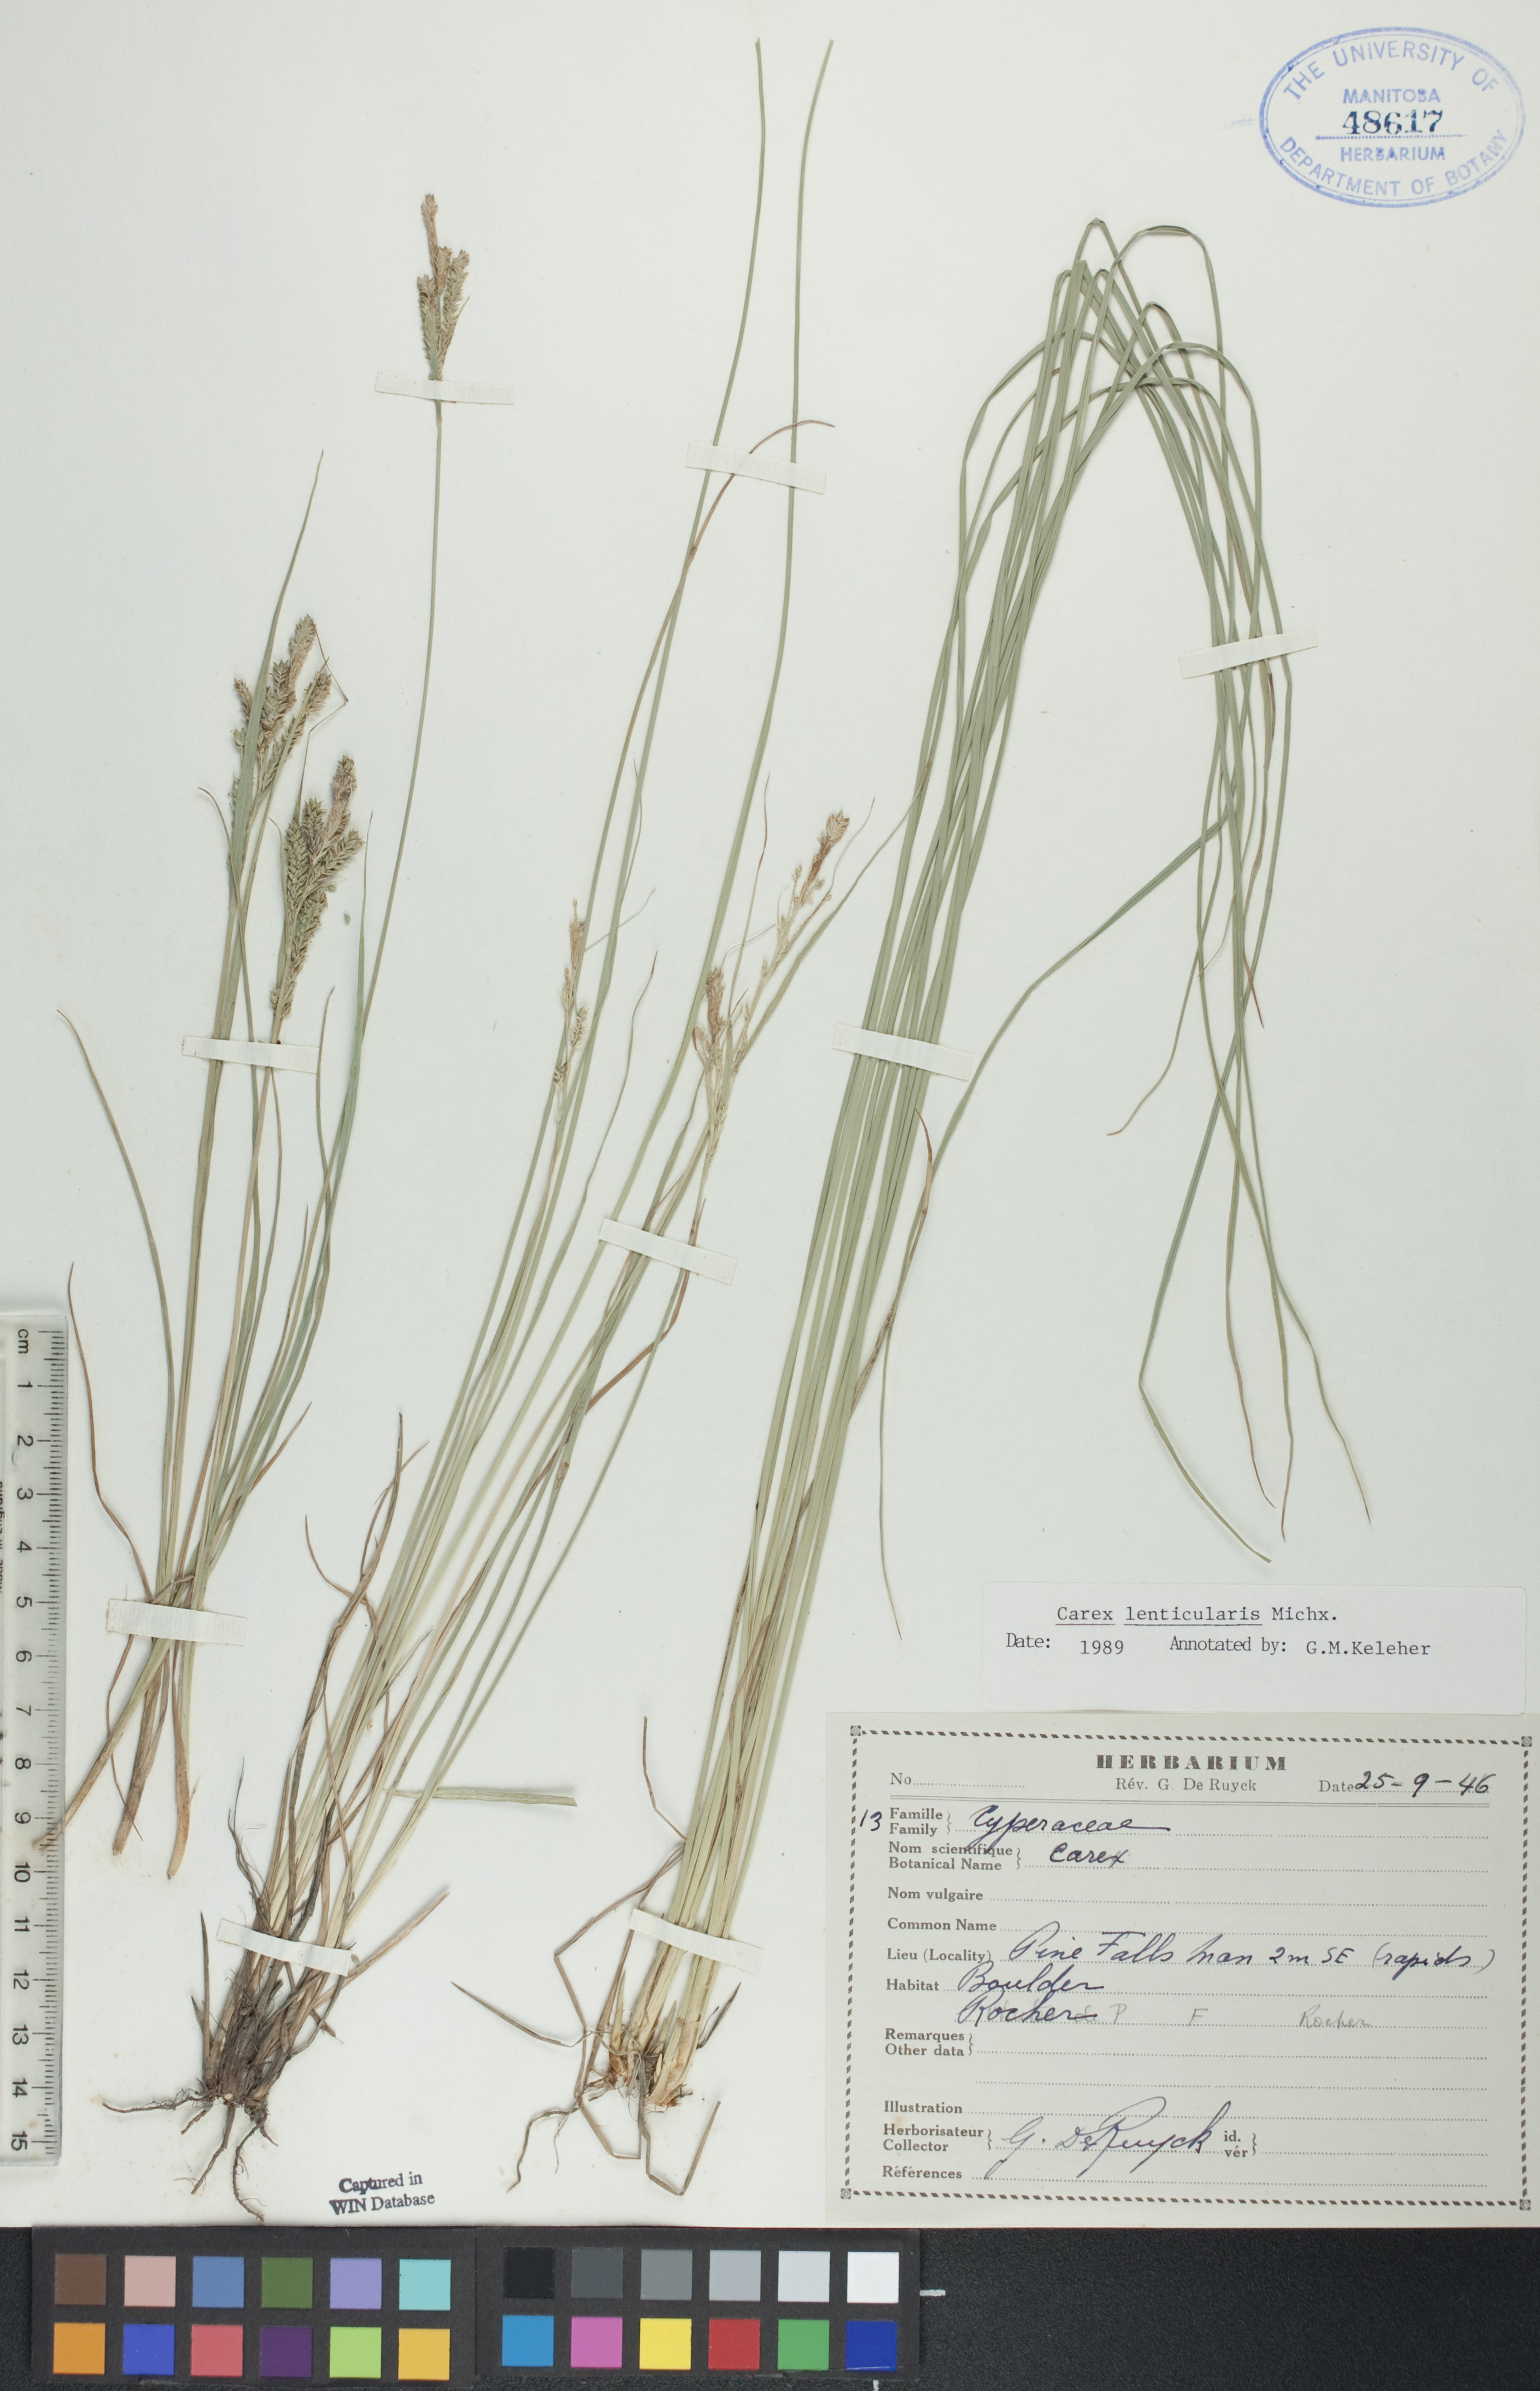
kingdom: Plantae
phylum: Tracheophyta
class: Liliopsida
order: Poales
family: Cyperaceae
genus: Carex
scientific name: Carex lenticularis
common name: Lakeshore sedge
